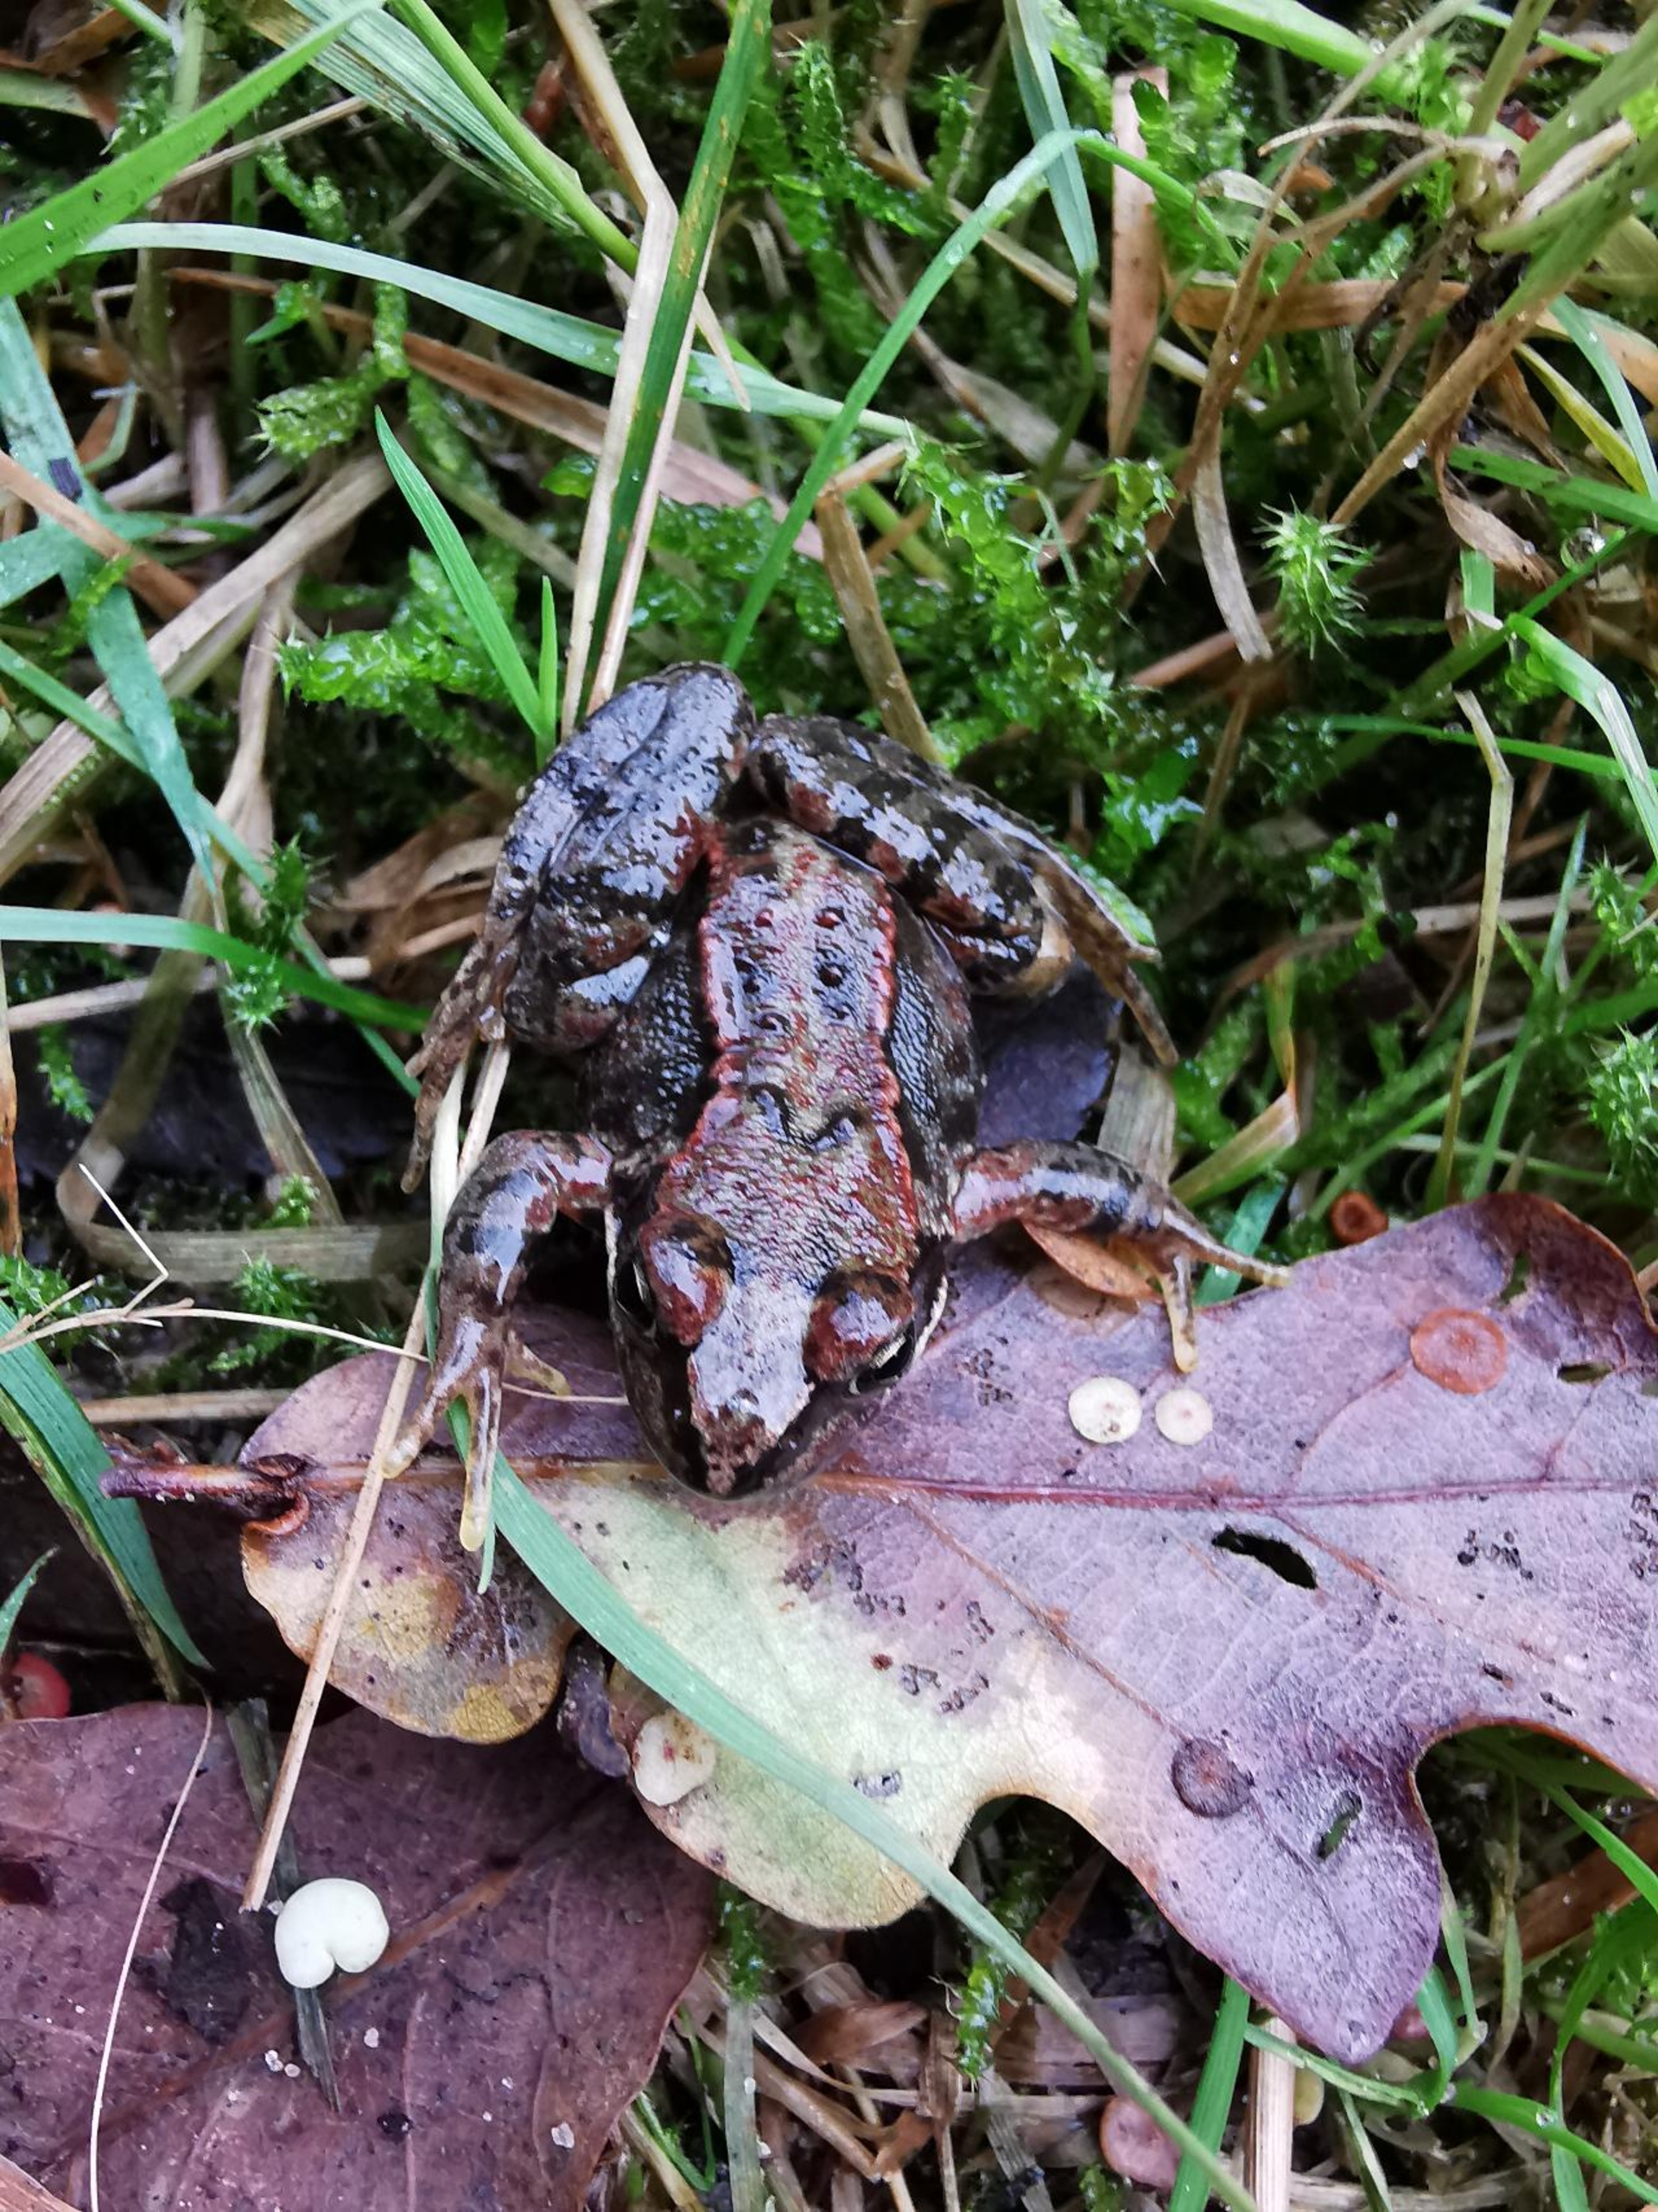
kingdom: Animalia
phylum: Chordata
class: Amphibia
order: Anura
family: Ranidae
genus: Rana
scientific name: Rana temporaria
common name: Butsnudet frø
